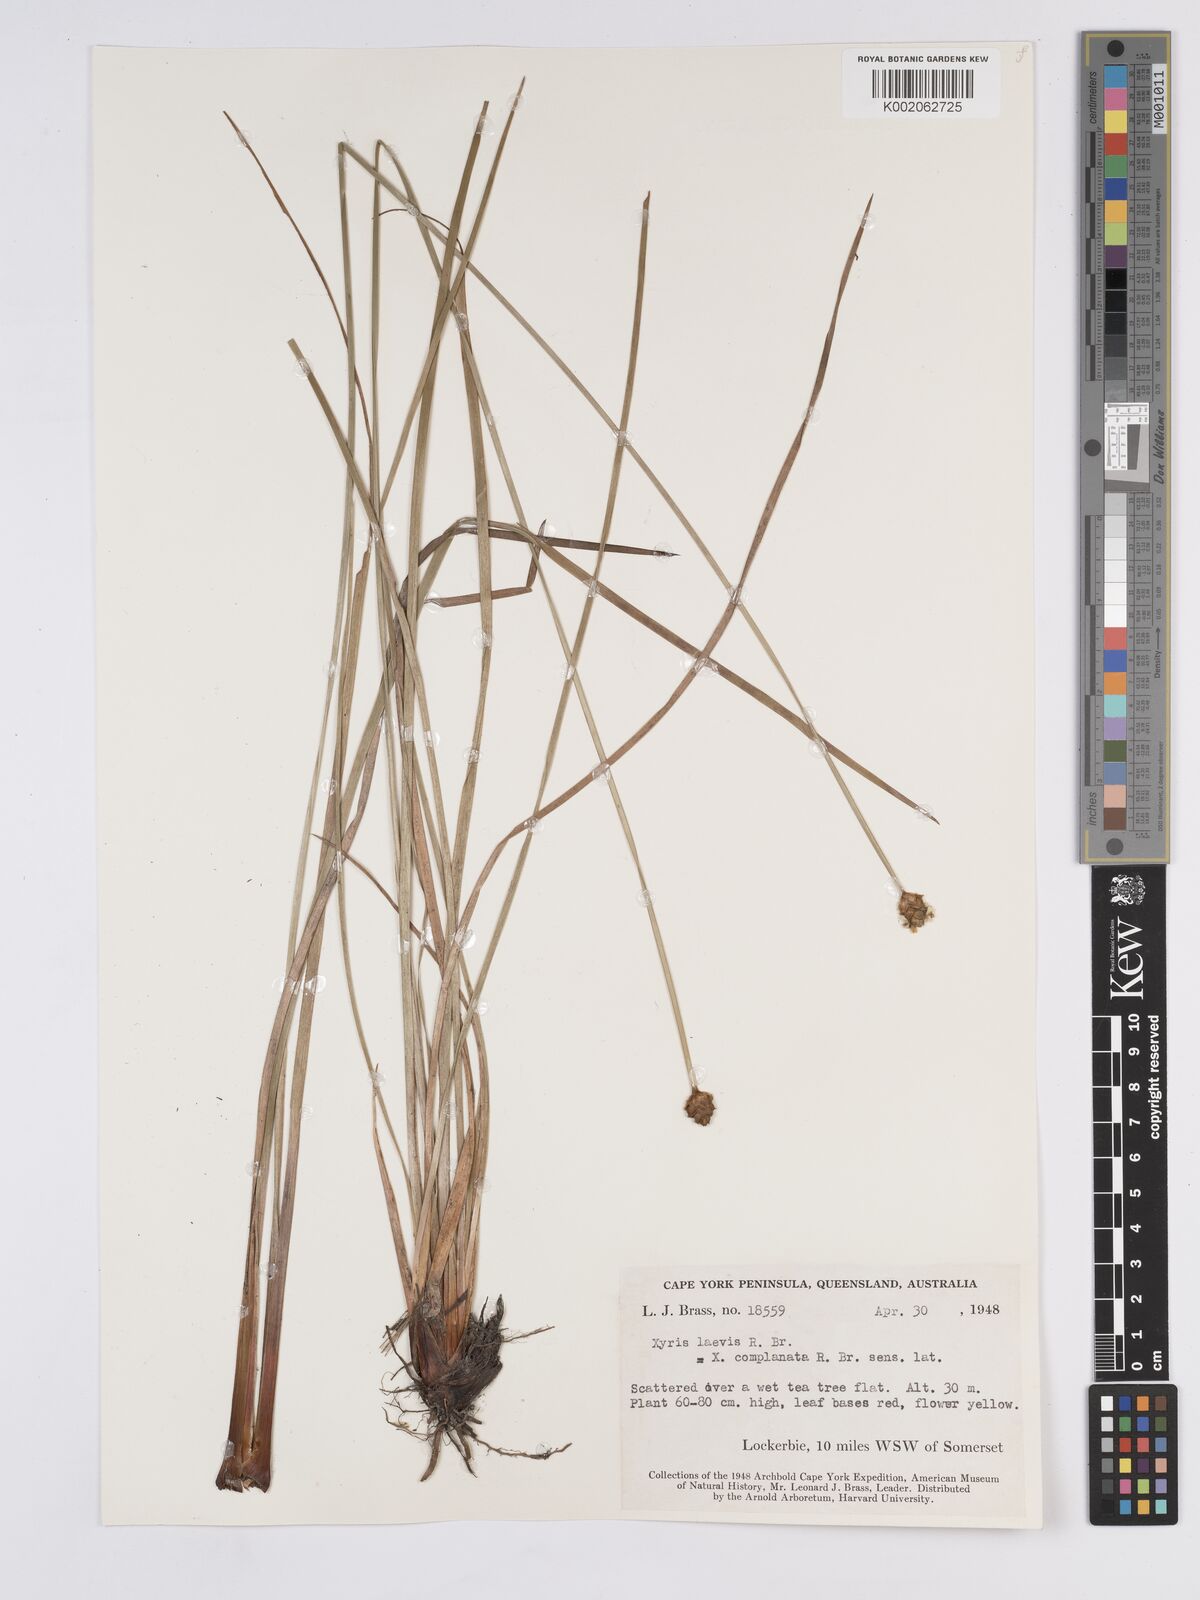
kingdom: Plantae
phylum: Tracheophyta
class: Liliopsida
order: Poales
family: Xyridaceae
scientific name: Xyridaceae
